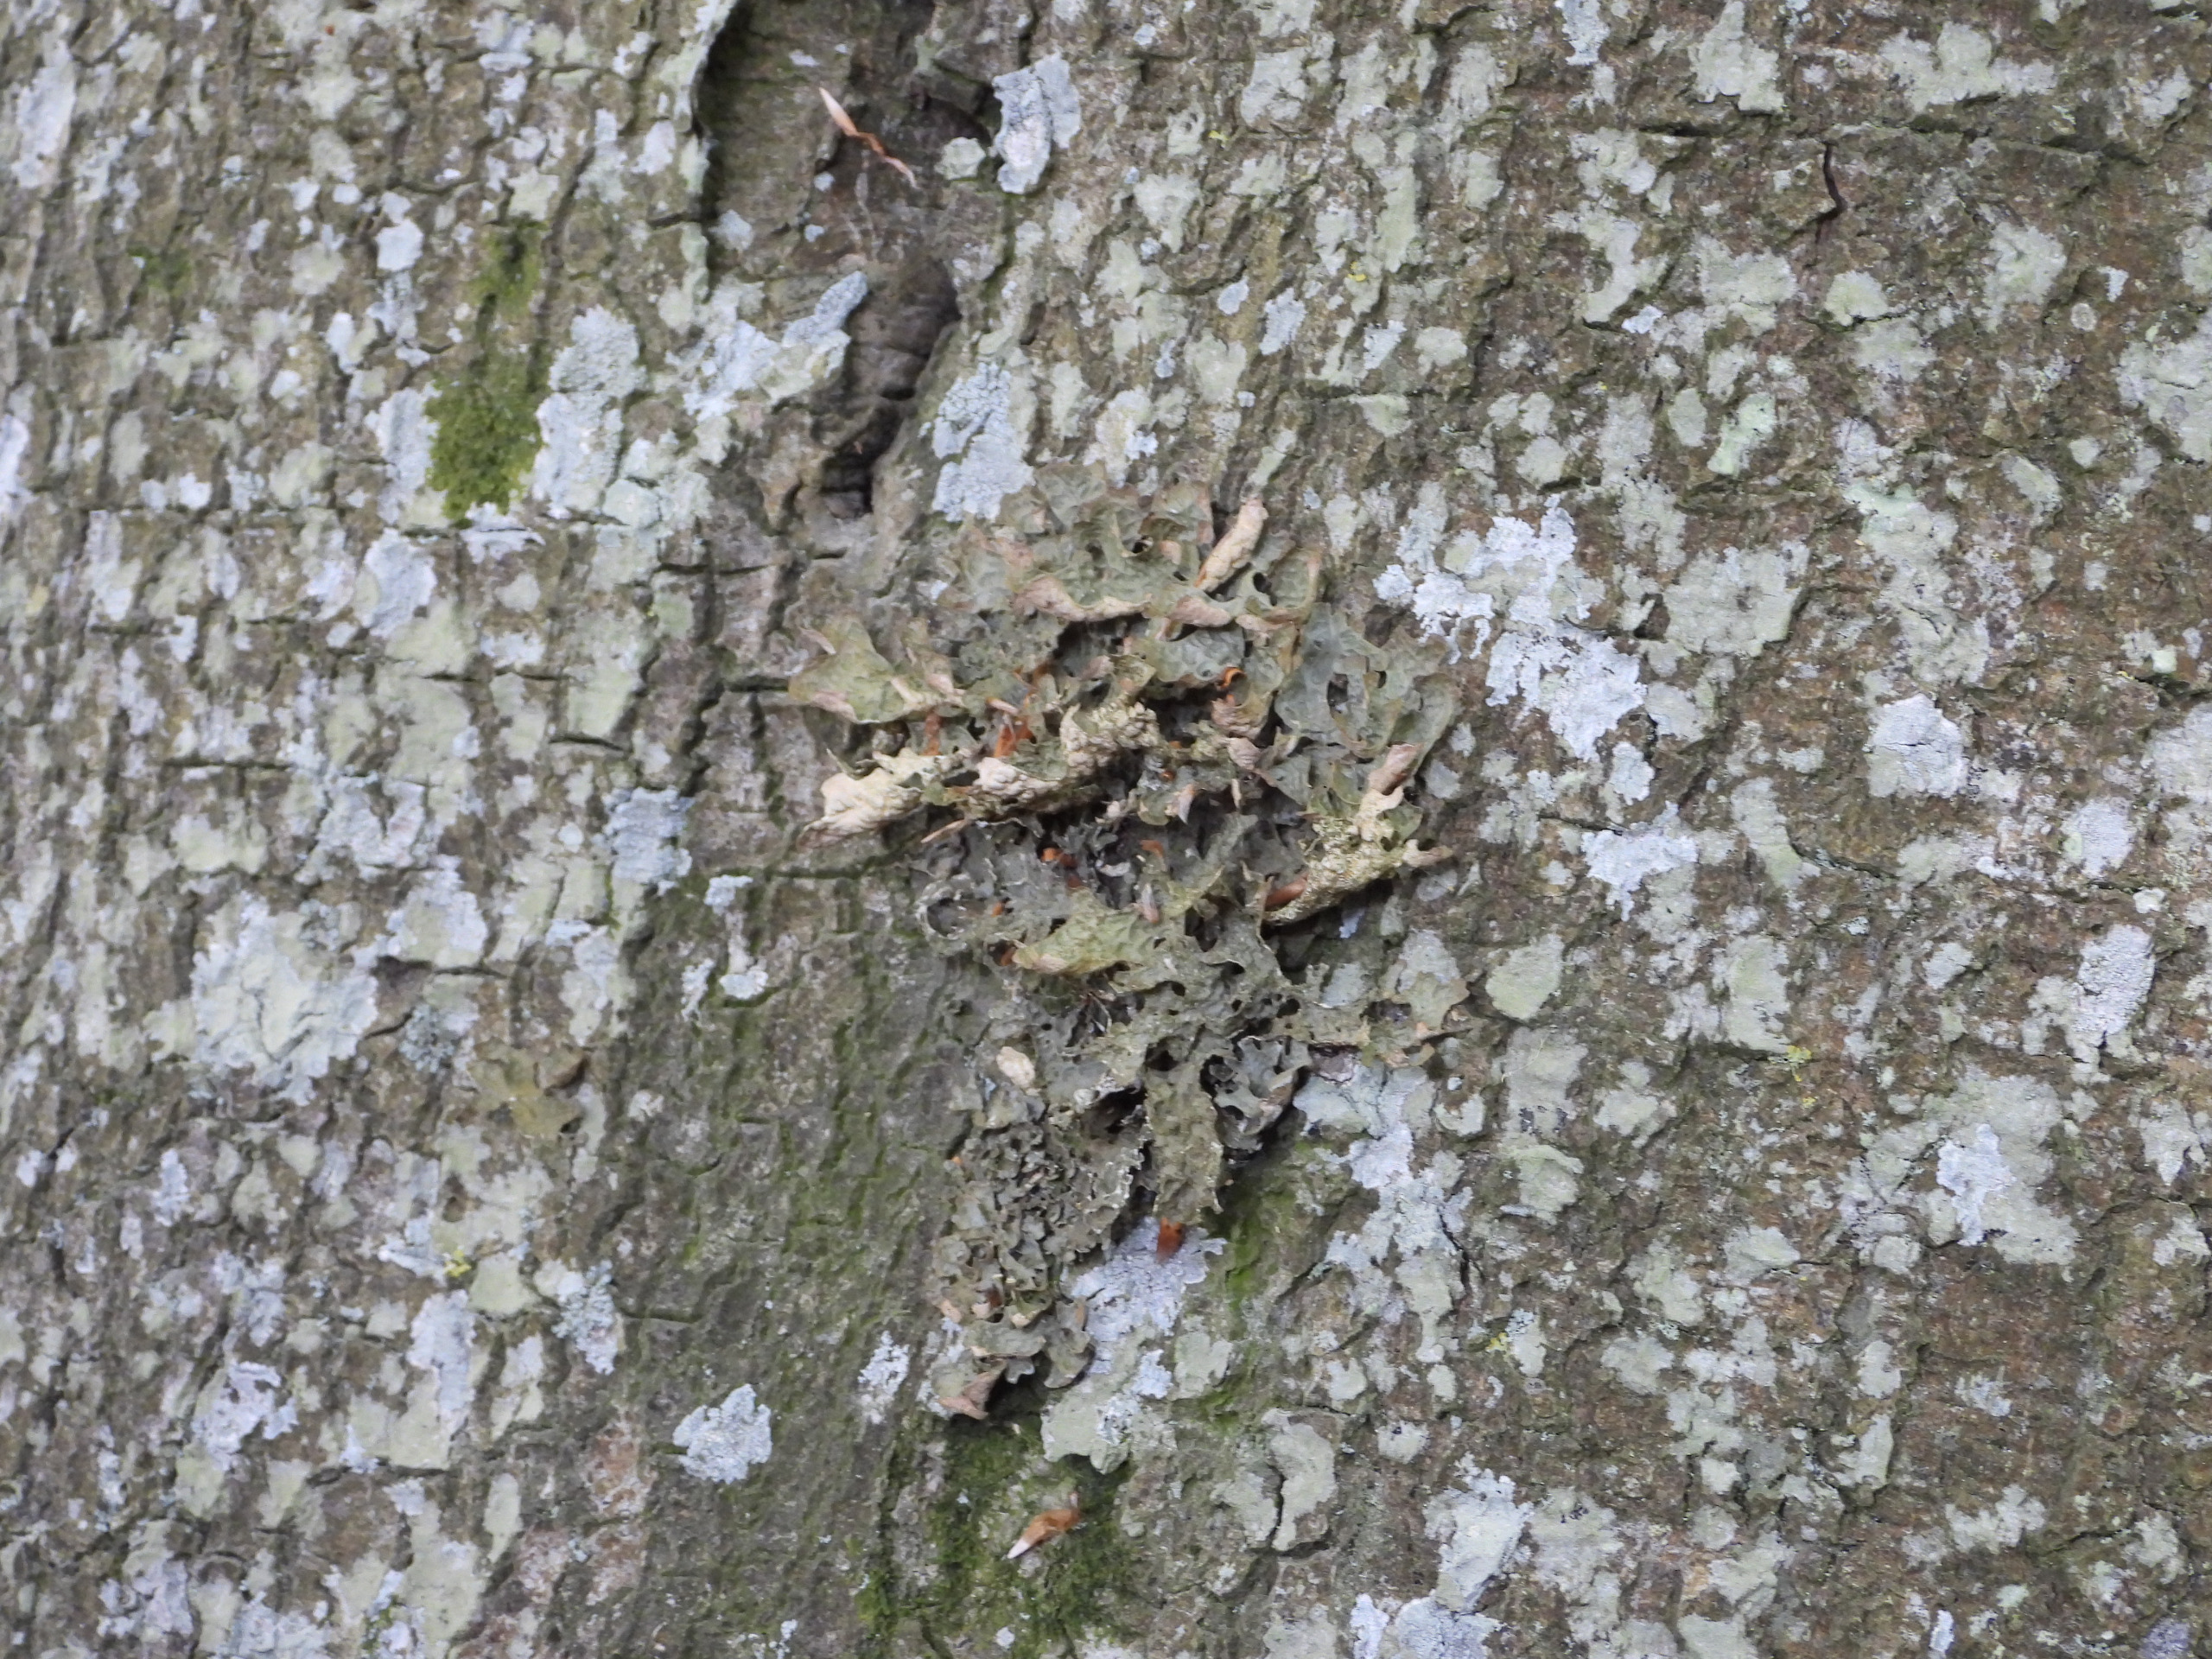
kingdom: Fungi
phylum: Ascomycota
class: Lecanoromycetes
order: Peltigerales
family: Lobariaceae
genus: Lobaria
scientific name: Lobaria pulmonaria
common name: Almindelig lungelav
